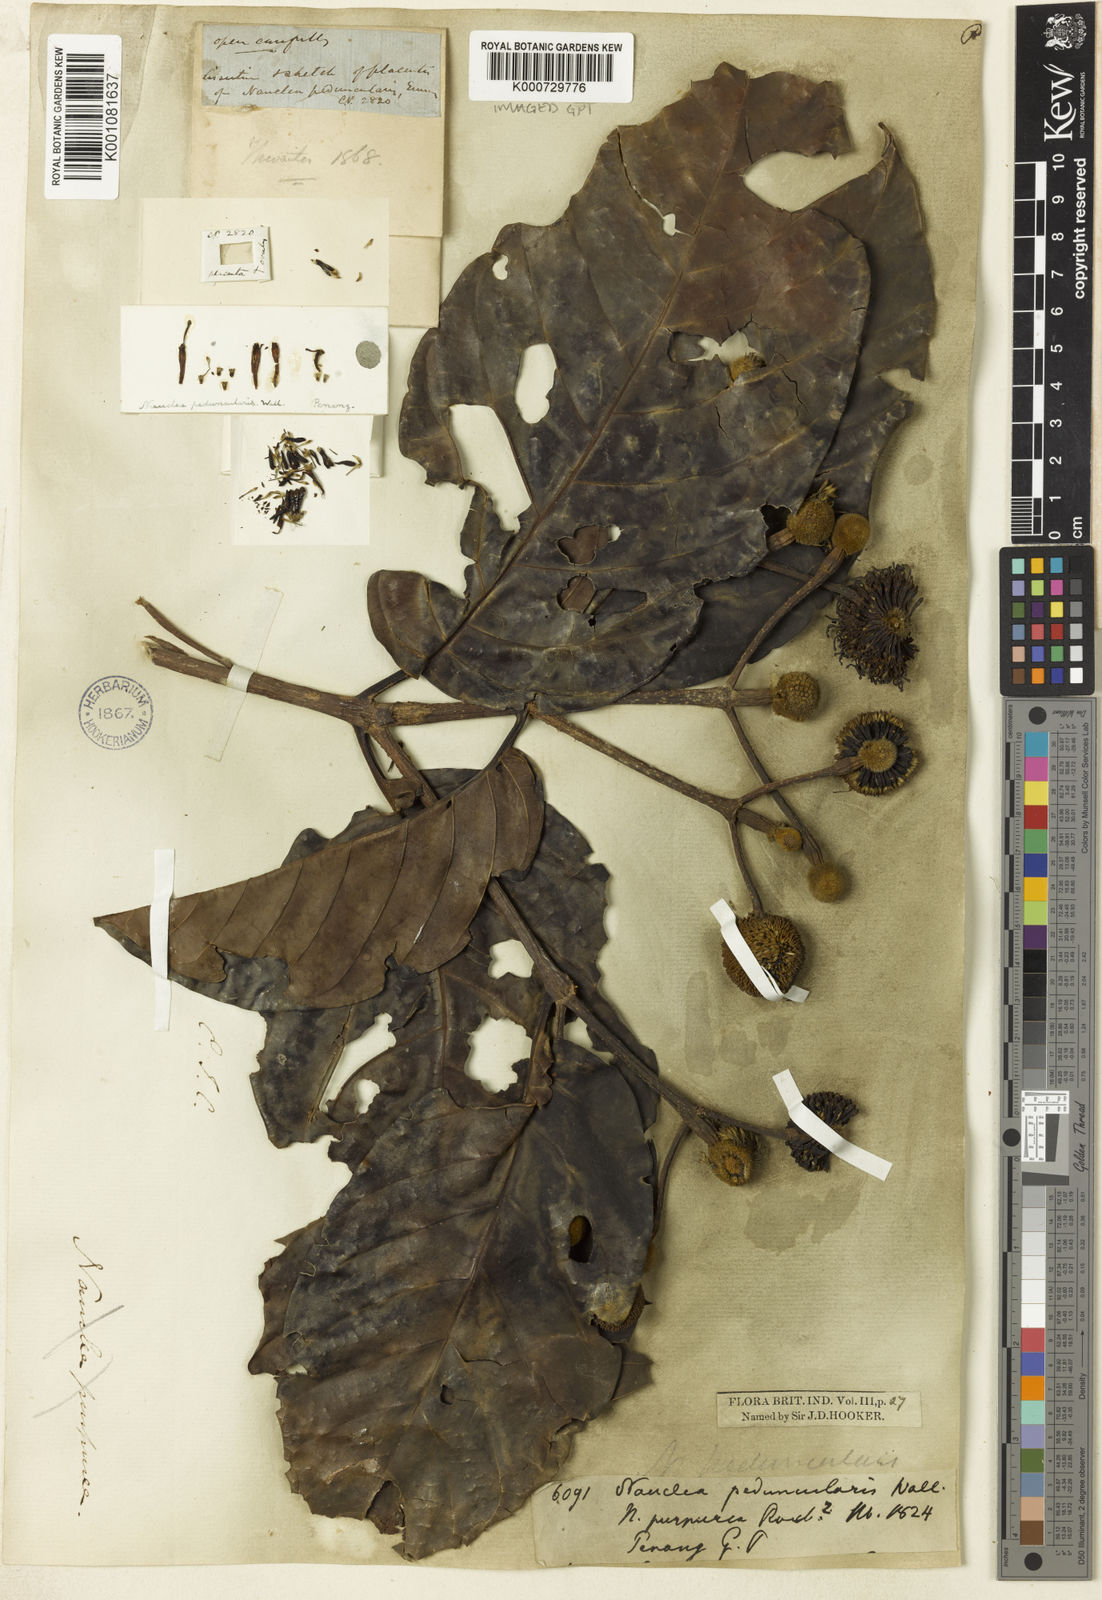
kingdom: Plantae
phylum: Tracheophyta
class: Magnoliopsida
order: Gentianales
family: Rubiaceae
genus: Neonauclea
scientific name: Neonauclea pallida
